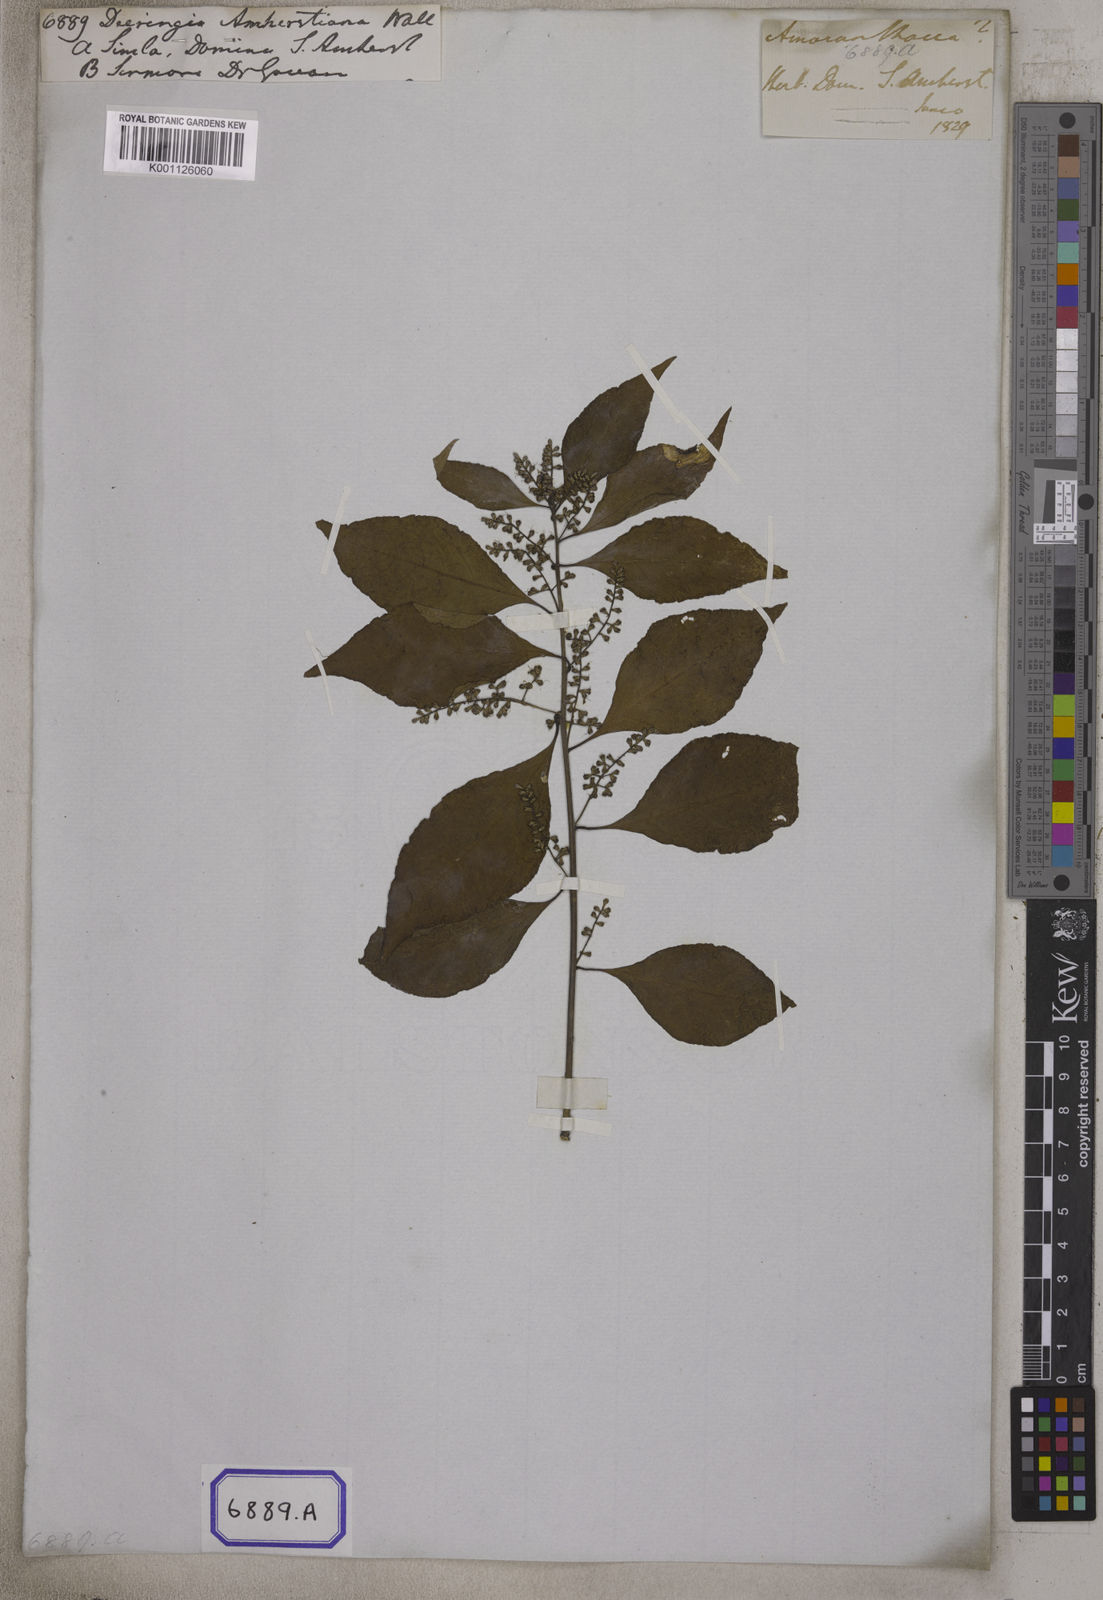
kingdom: Plantae
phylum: Tracheophyta
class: Magnoliopsida
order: Caryophyllales
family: Amaranthaceae
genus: Bosea
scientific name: Bosea amherstiana
